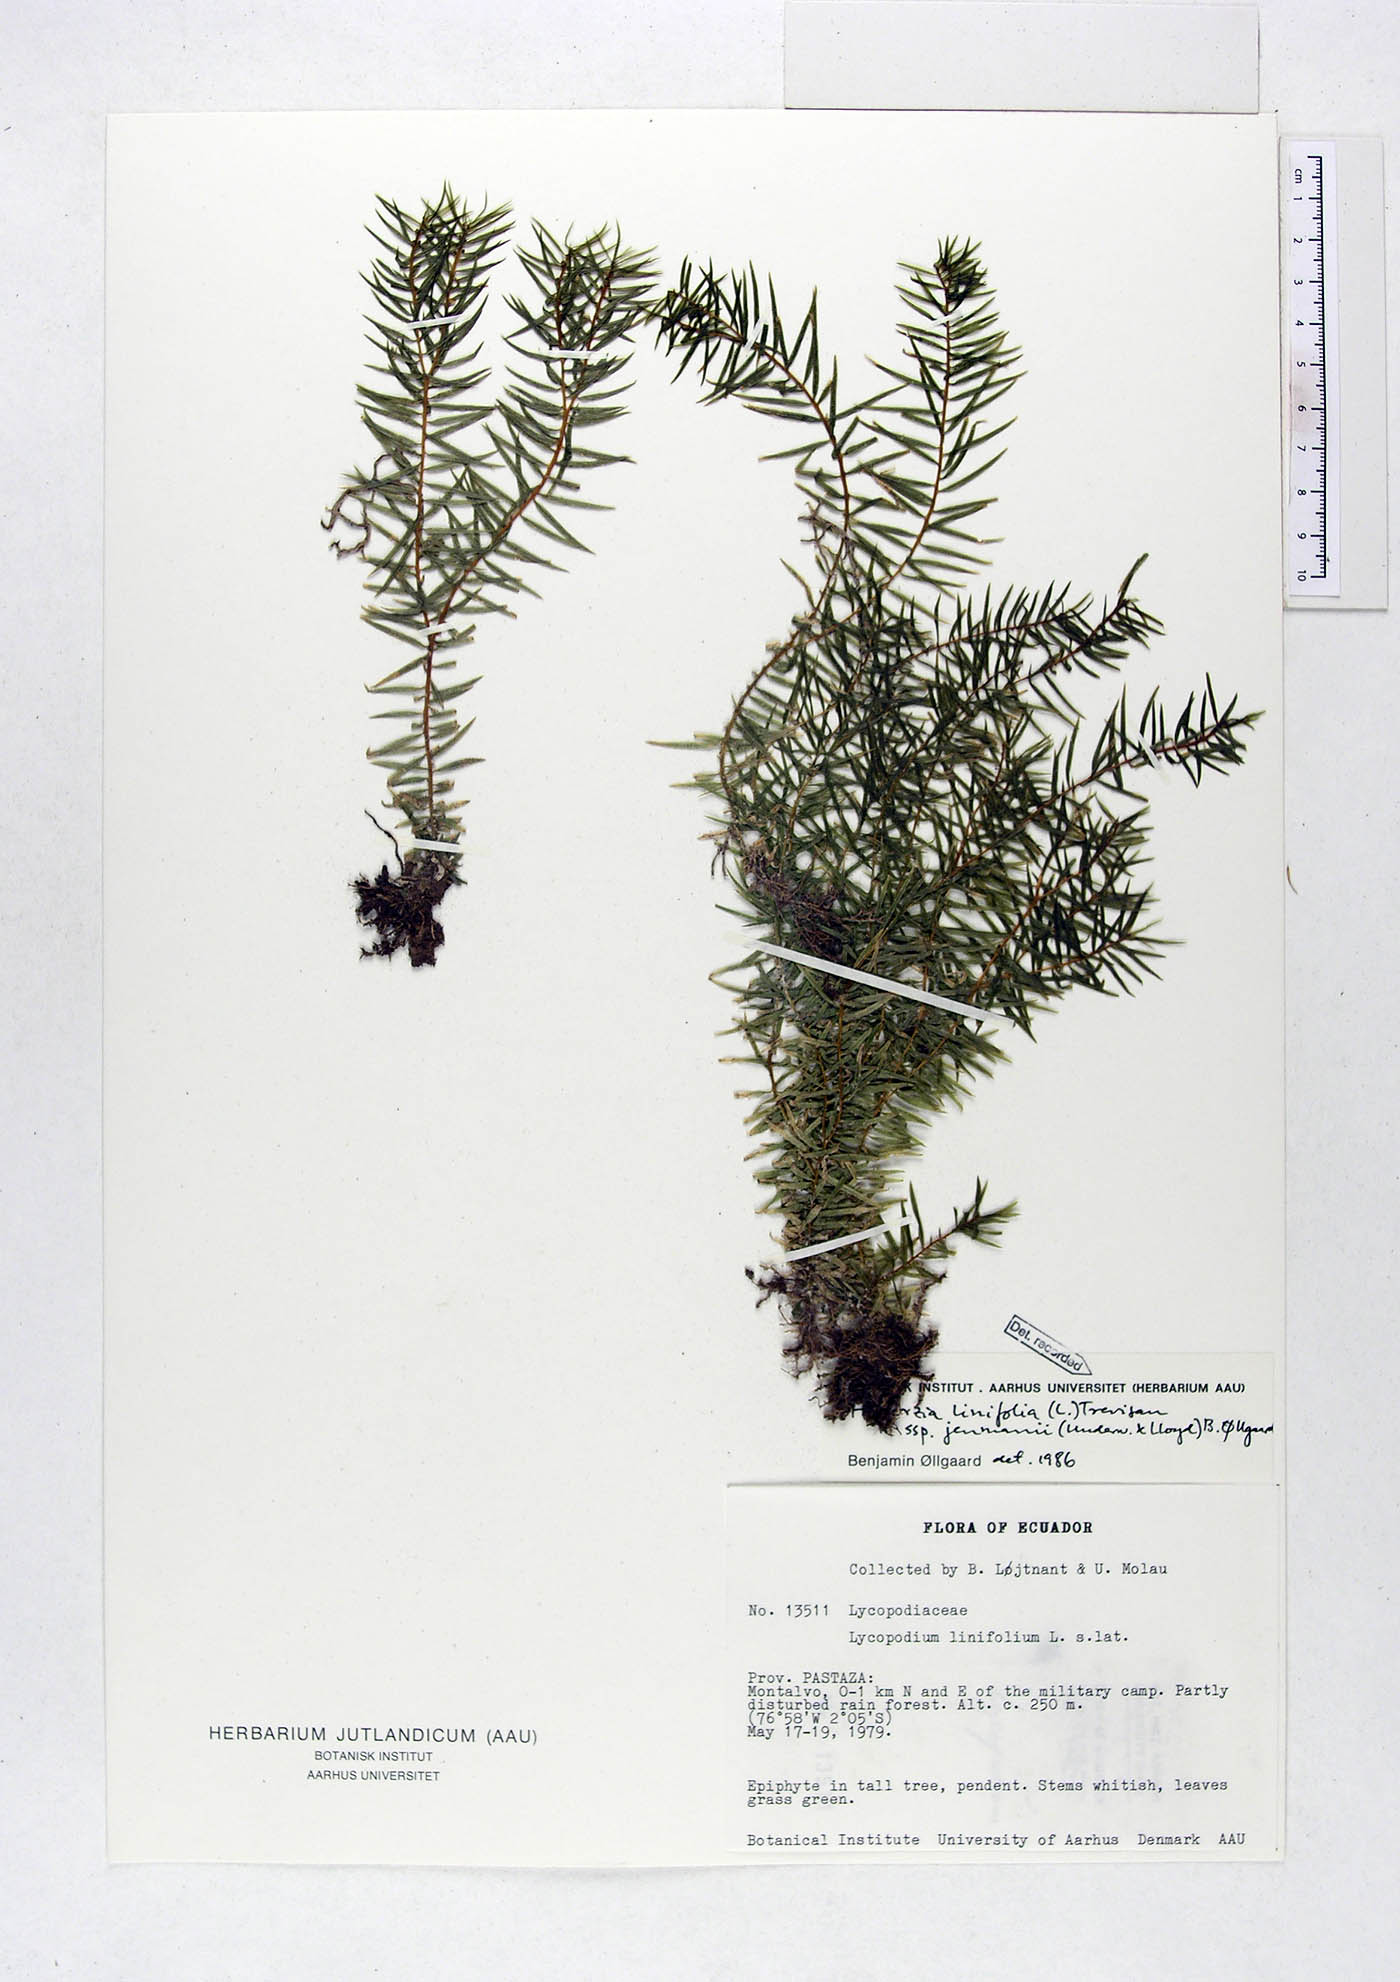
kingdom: Plantae
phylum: Tracheophyta
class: Lycopodiopsida
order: Lycopodiales
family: Lycopodiaceae
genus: Phlegmariurus
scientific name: Phlegmariurus linifolius
